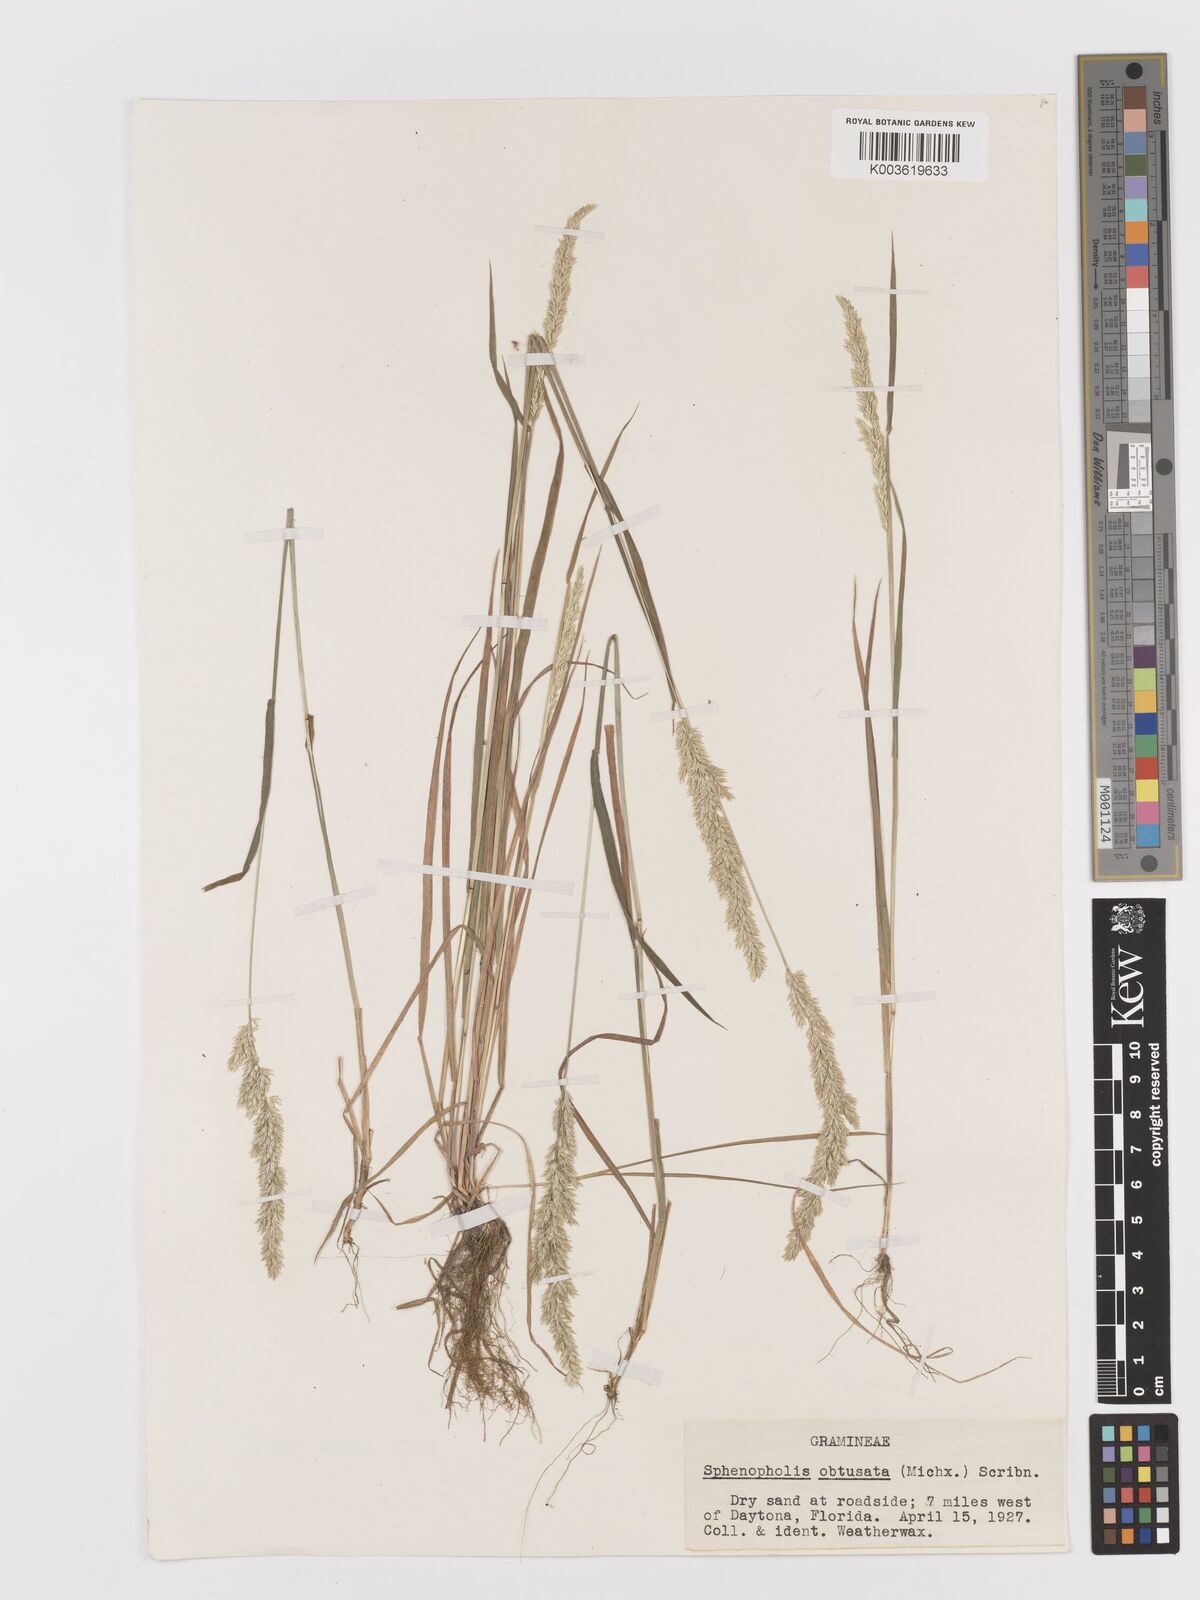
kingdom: Plantae
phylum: Tracheophyta
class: Liliopsida
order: Poales
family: Poaceae
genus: Sphenopholis
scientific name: Sphenopholis obtusata
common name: Prairie grass
